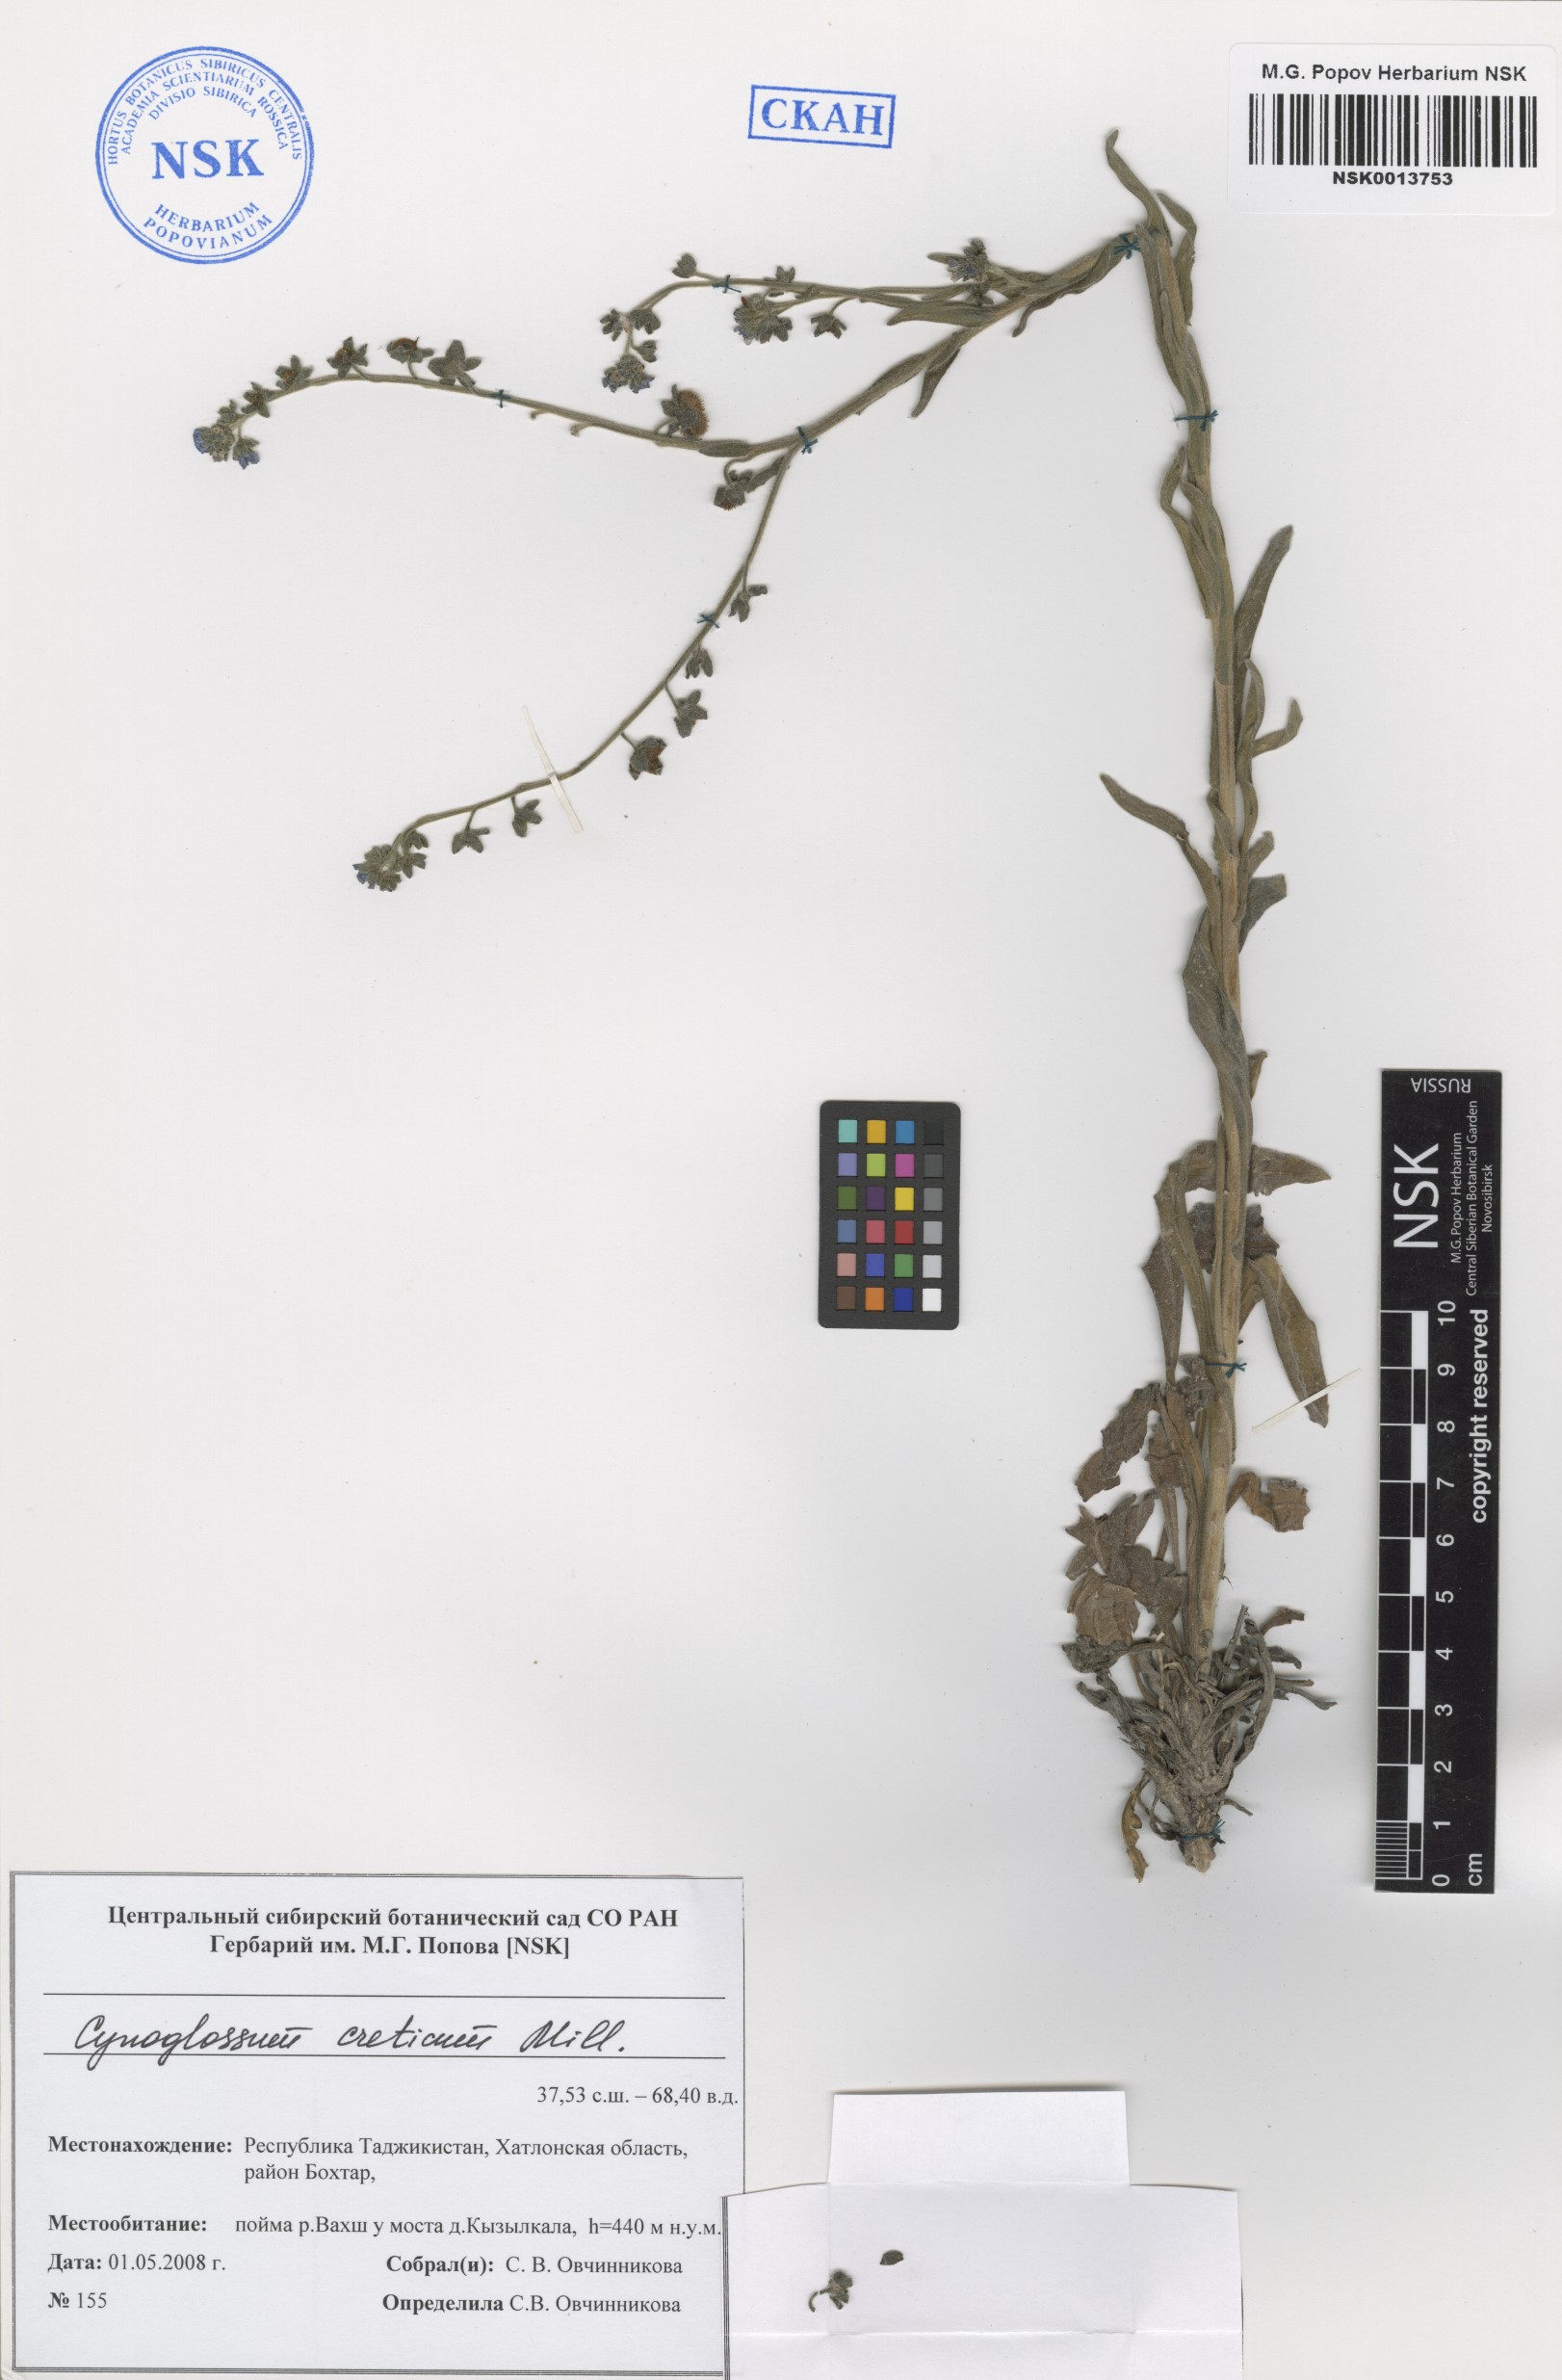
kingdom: Plantae
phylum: Tracheophyta
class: Magnoliopsida
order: Boraginales
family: Boraginaceae
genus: Cynoglossum
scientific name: Cynoglossum creticum
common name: Blue hound's tongue
